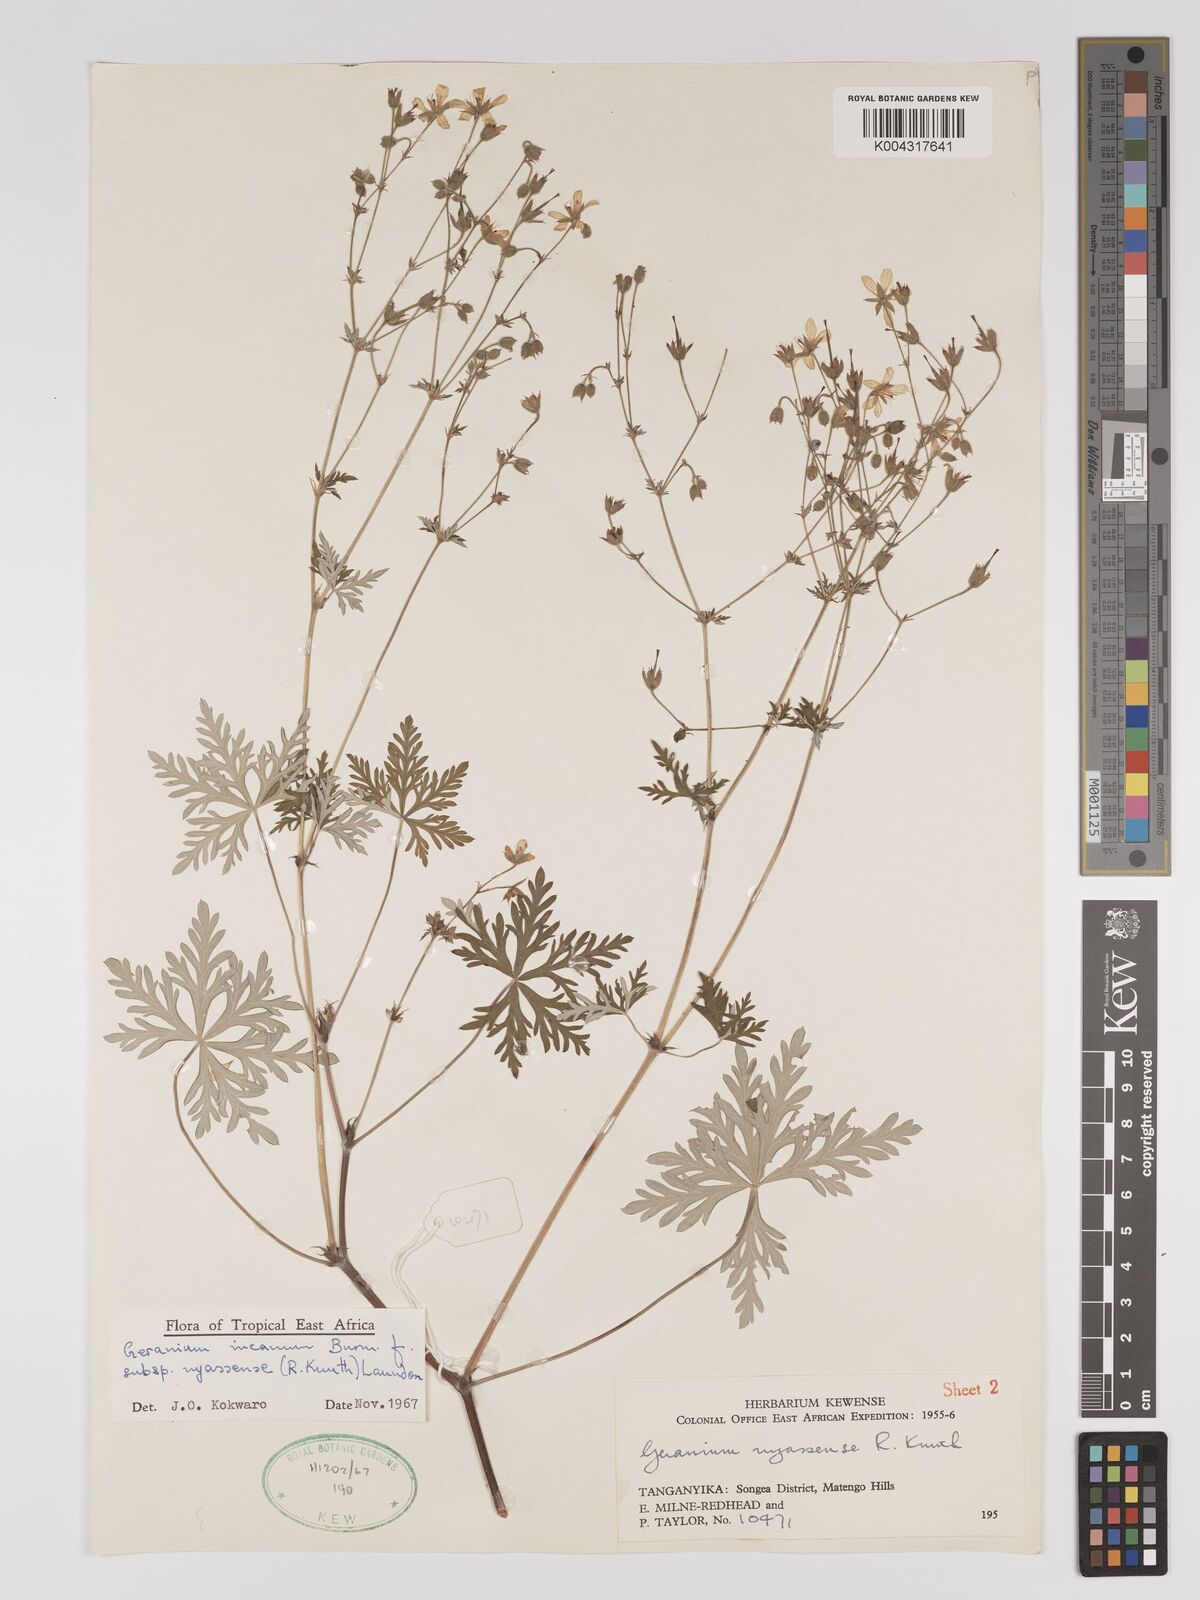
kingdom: Plantae
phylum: Tracheophyta
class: Magnoliopsida
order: Geraniales
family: Geraniaceae
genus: Geranium
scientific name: Geranium incanum
